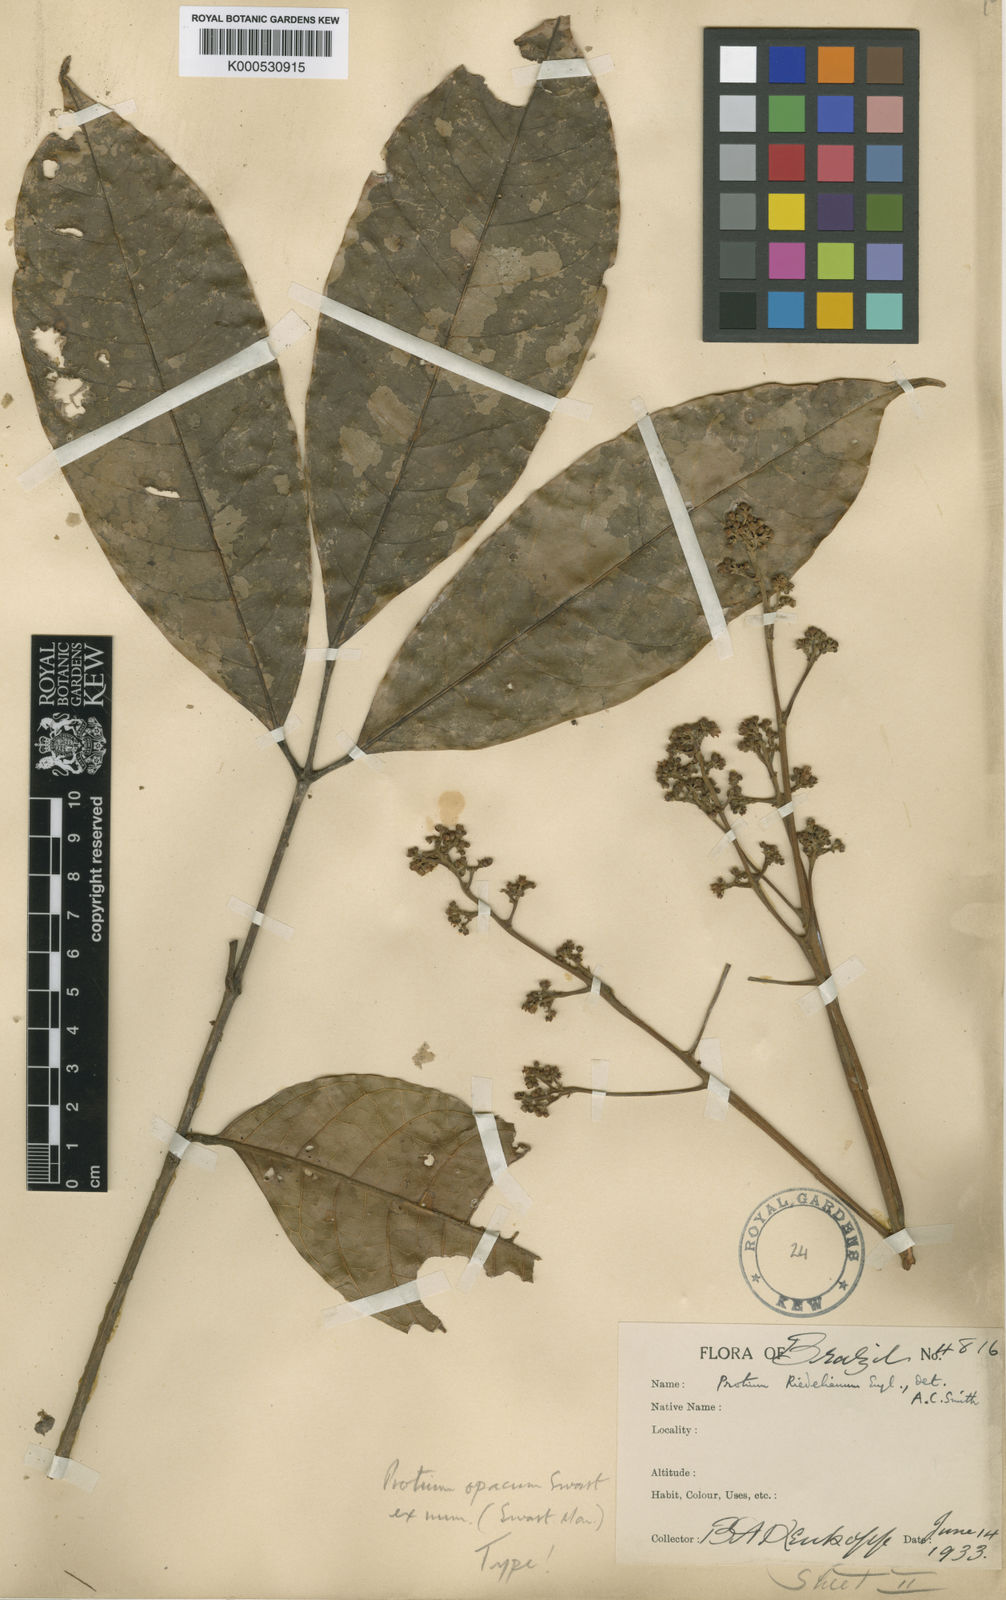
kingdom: Plantae
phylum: Tracheophyta
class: Magnoliopsida
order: Sapindales
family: Burseraceae
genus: Protium
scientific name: Protium opacum
